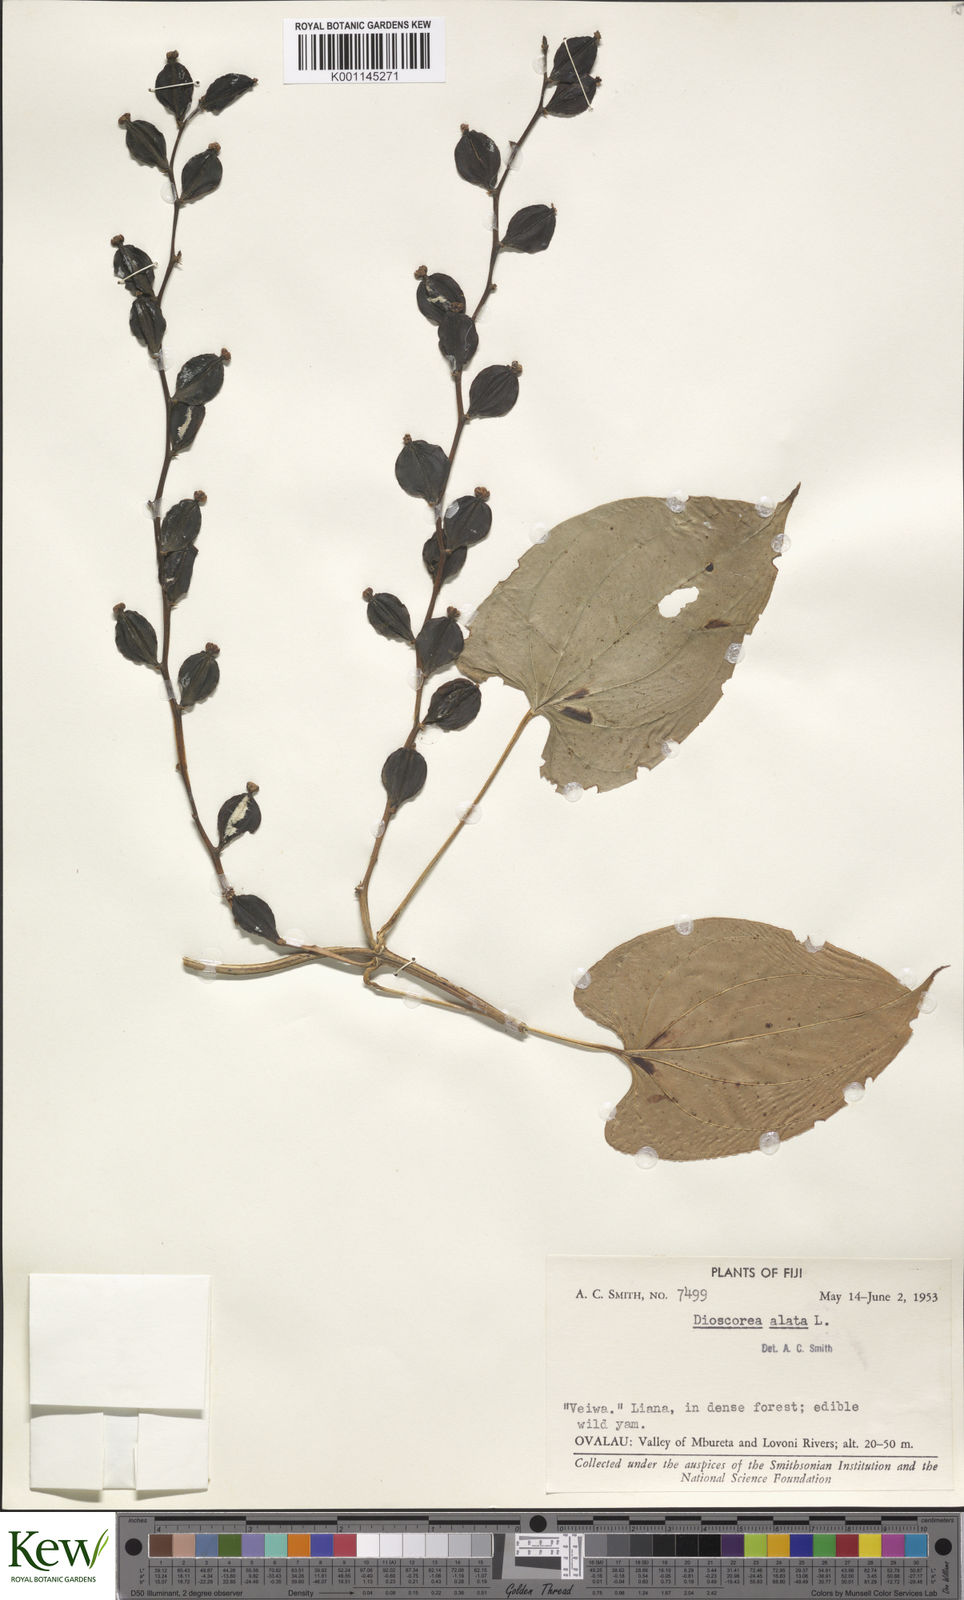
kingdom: Plantae
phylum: Tracheophyta
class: Liliopsida
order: Dioscoreales
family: Dioscoreaceae
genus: Dioscorea
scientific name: Dioscorea alata
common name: Water yam
